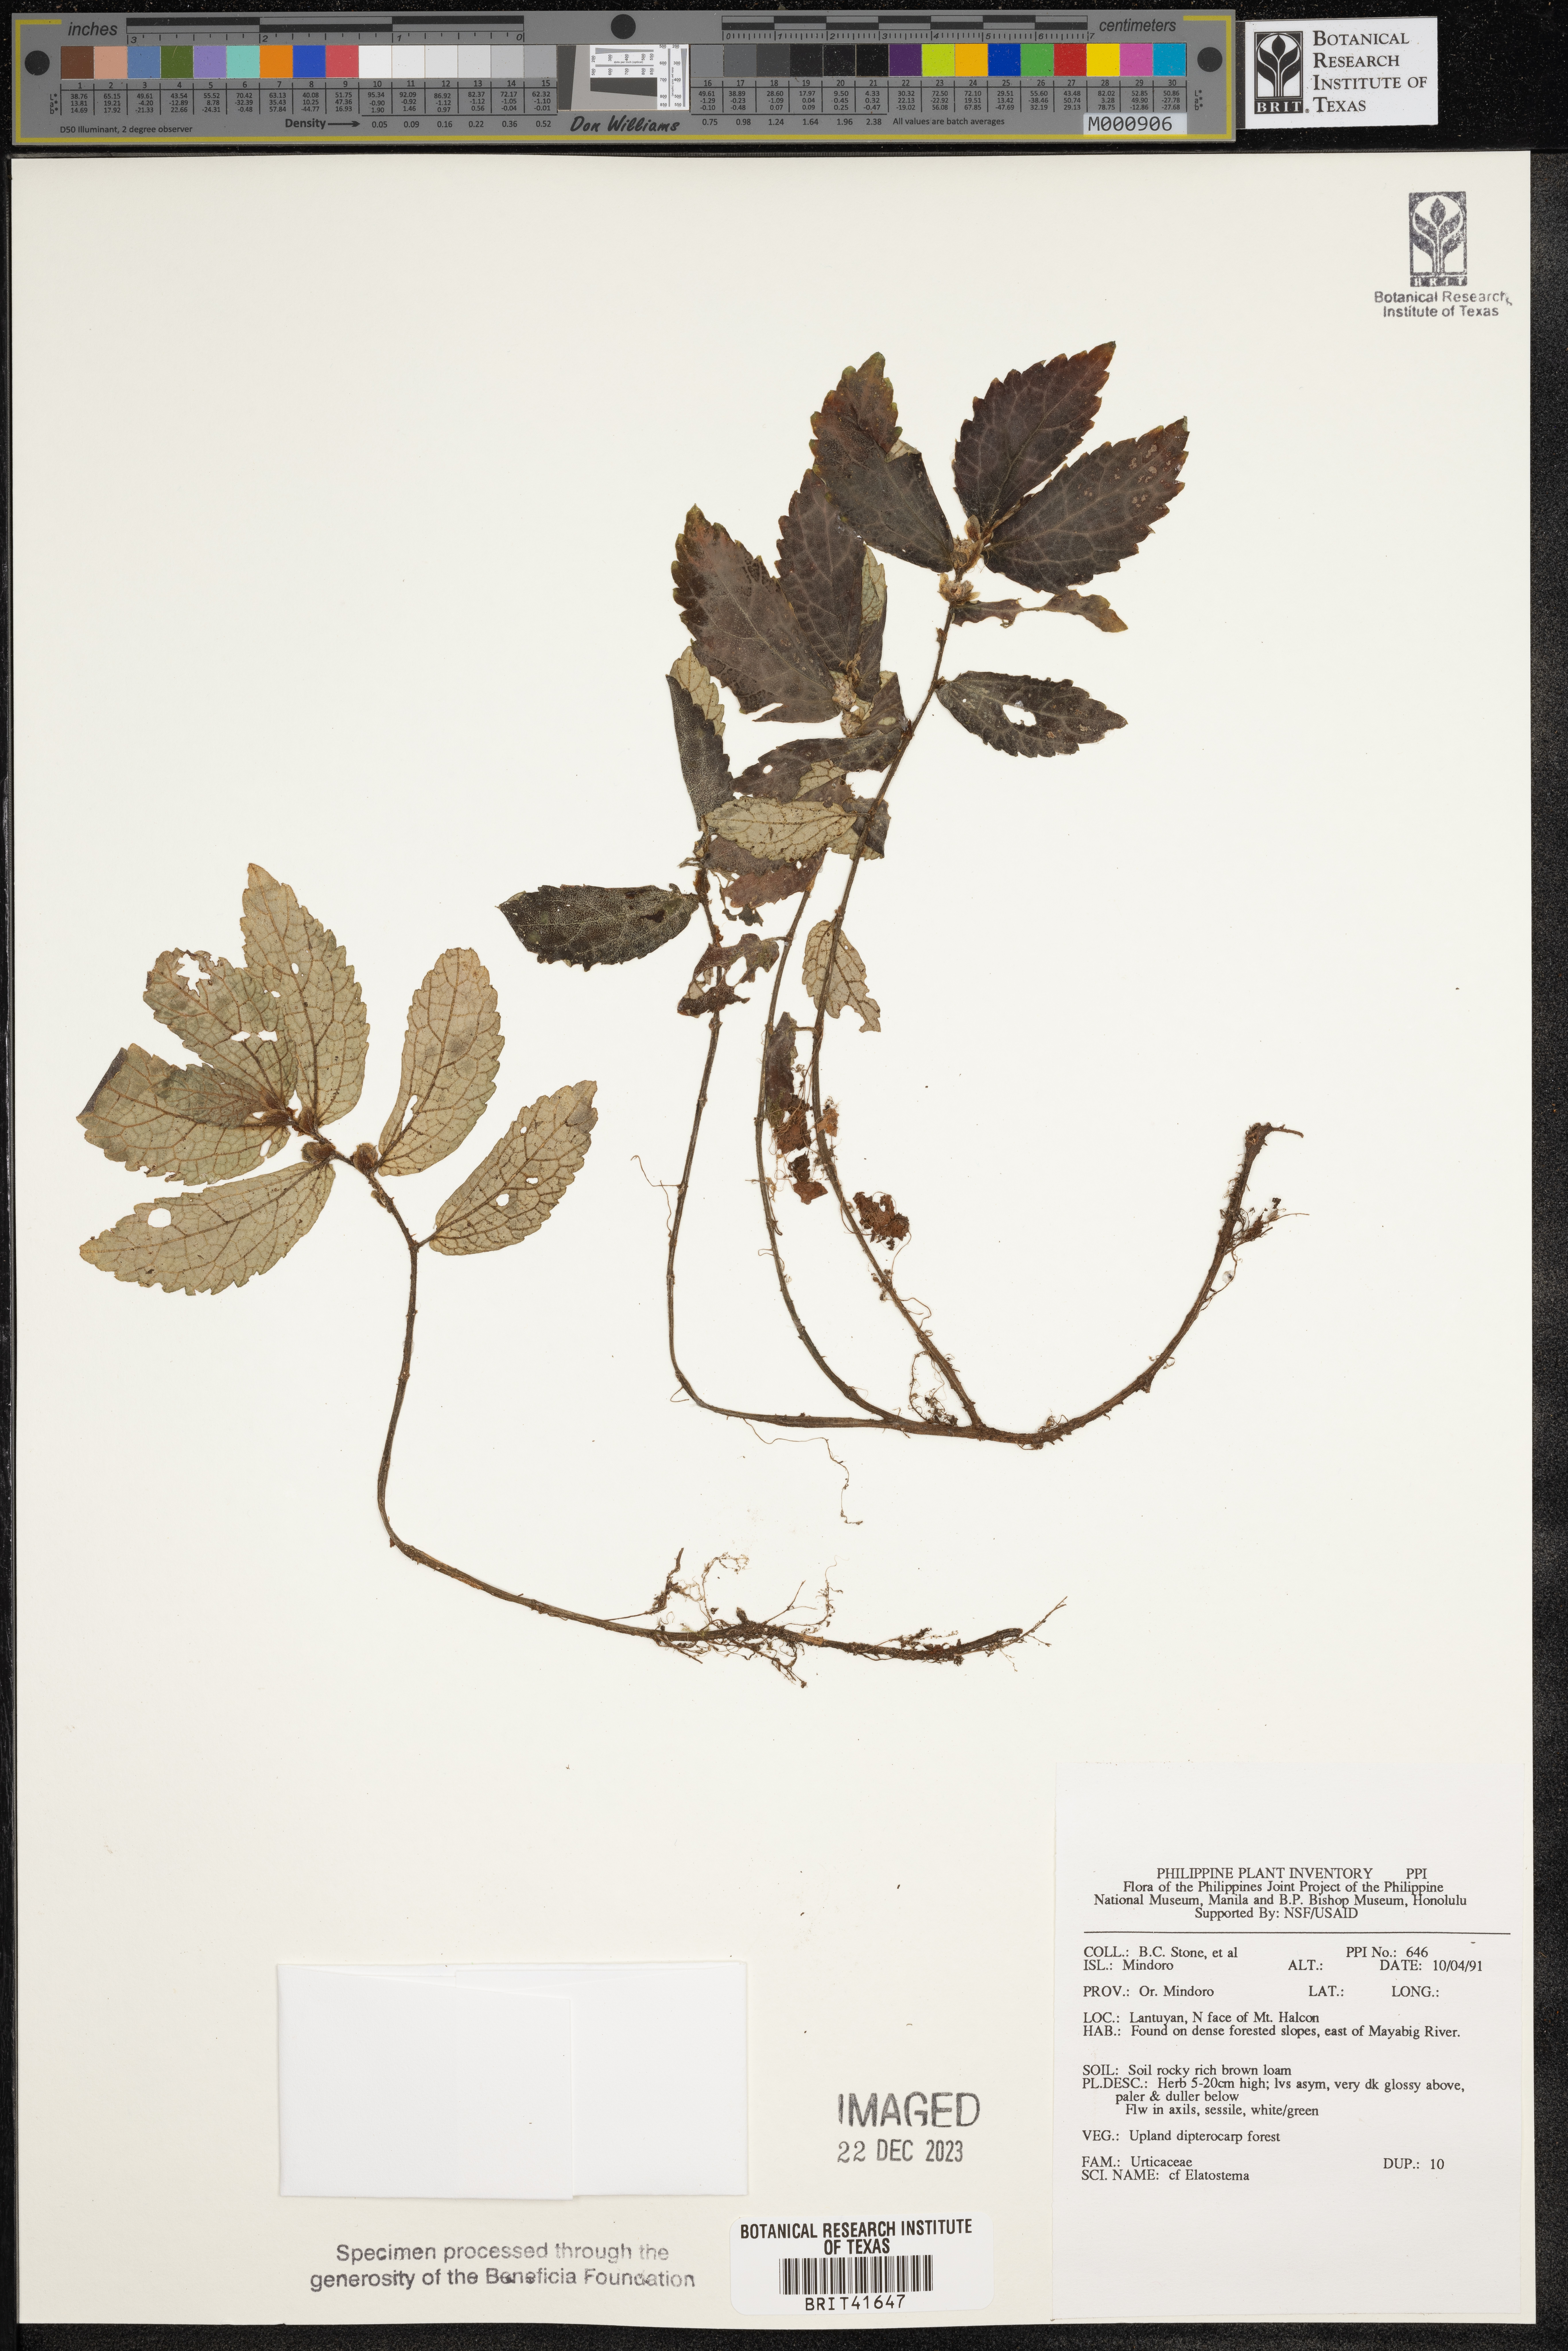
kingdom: Plantae
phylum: Tracheophyta
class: Magnoliopsida
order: Rosales
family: Urticaceae
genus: Elatostema
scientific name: Elatostema
